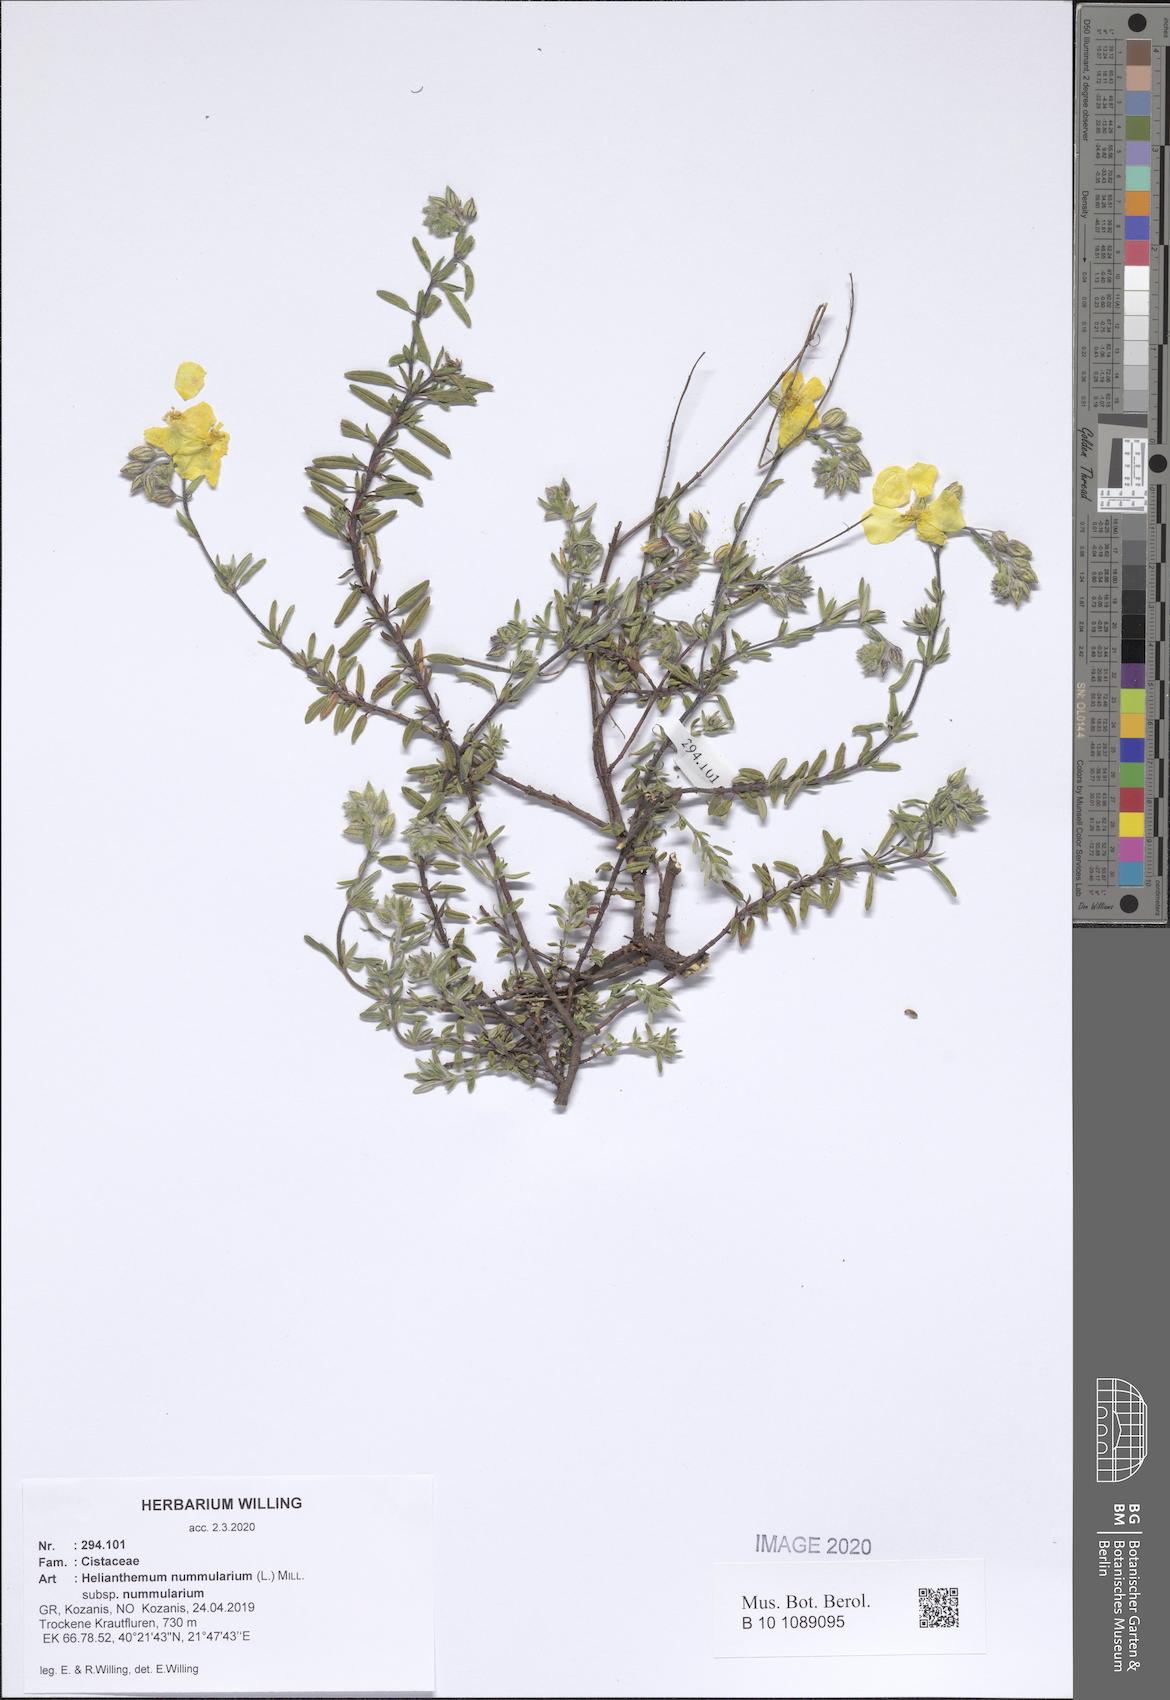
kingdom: Plantae
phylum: Tracheophyta
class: Magnoliopsida
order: Malvales
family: Cistaceae
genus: Helianthemum
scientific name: Helianthemum nummularium
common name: Common rock-rose
